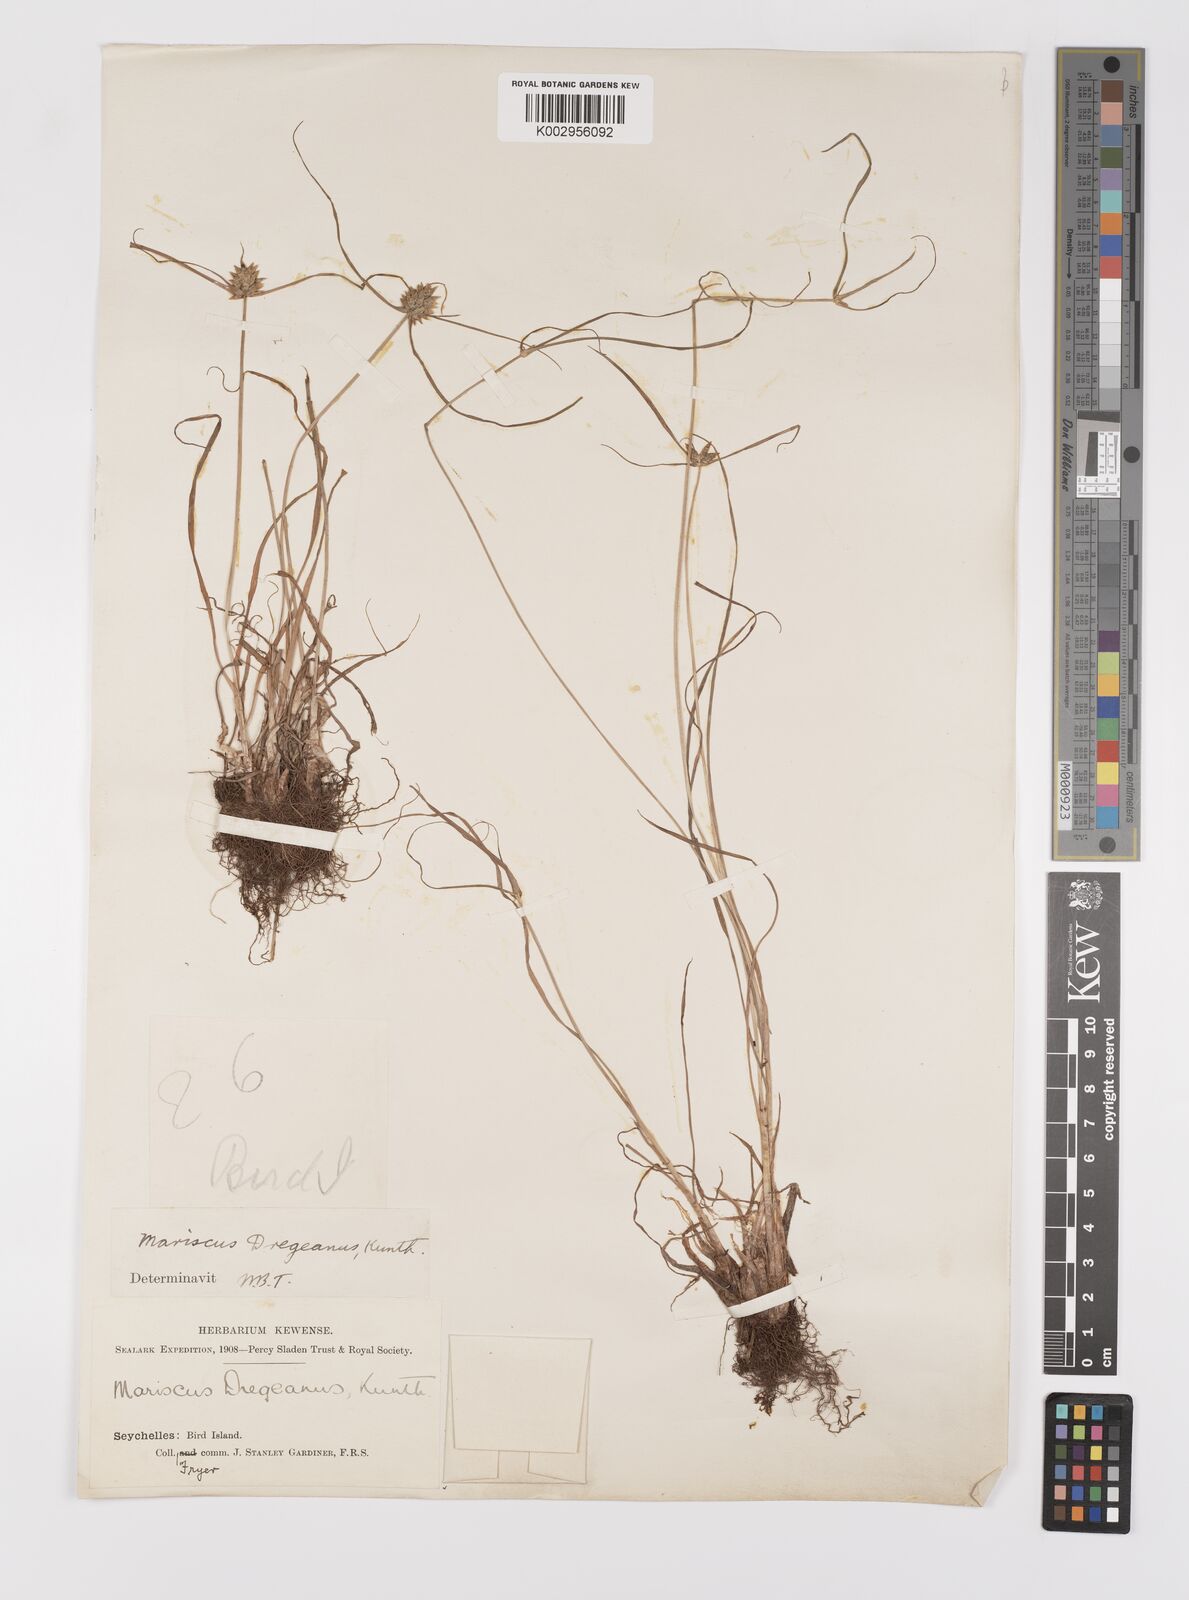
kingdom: Plantae
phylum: Tracheophyta
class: Liliopsida
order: Poales
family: Cyperaceae
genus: Cyperus
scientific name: Cyperus dubius
